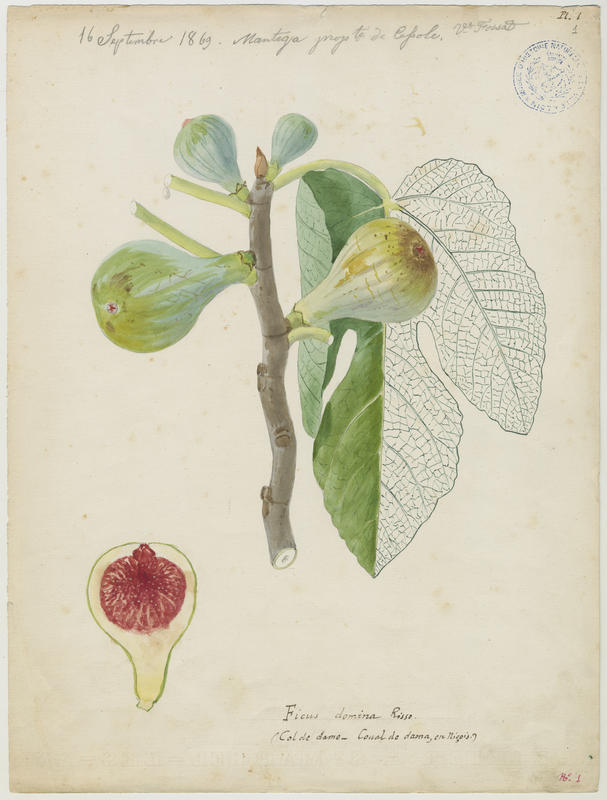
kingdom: Plantae
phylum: Tracheophyta
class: Magnoliopsida
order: Rosales
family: Moraceae
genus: Ficus
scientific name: Ficus carica
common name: Fig
